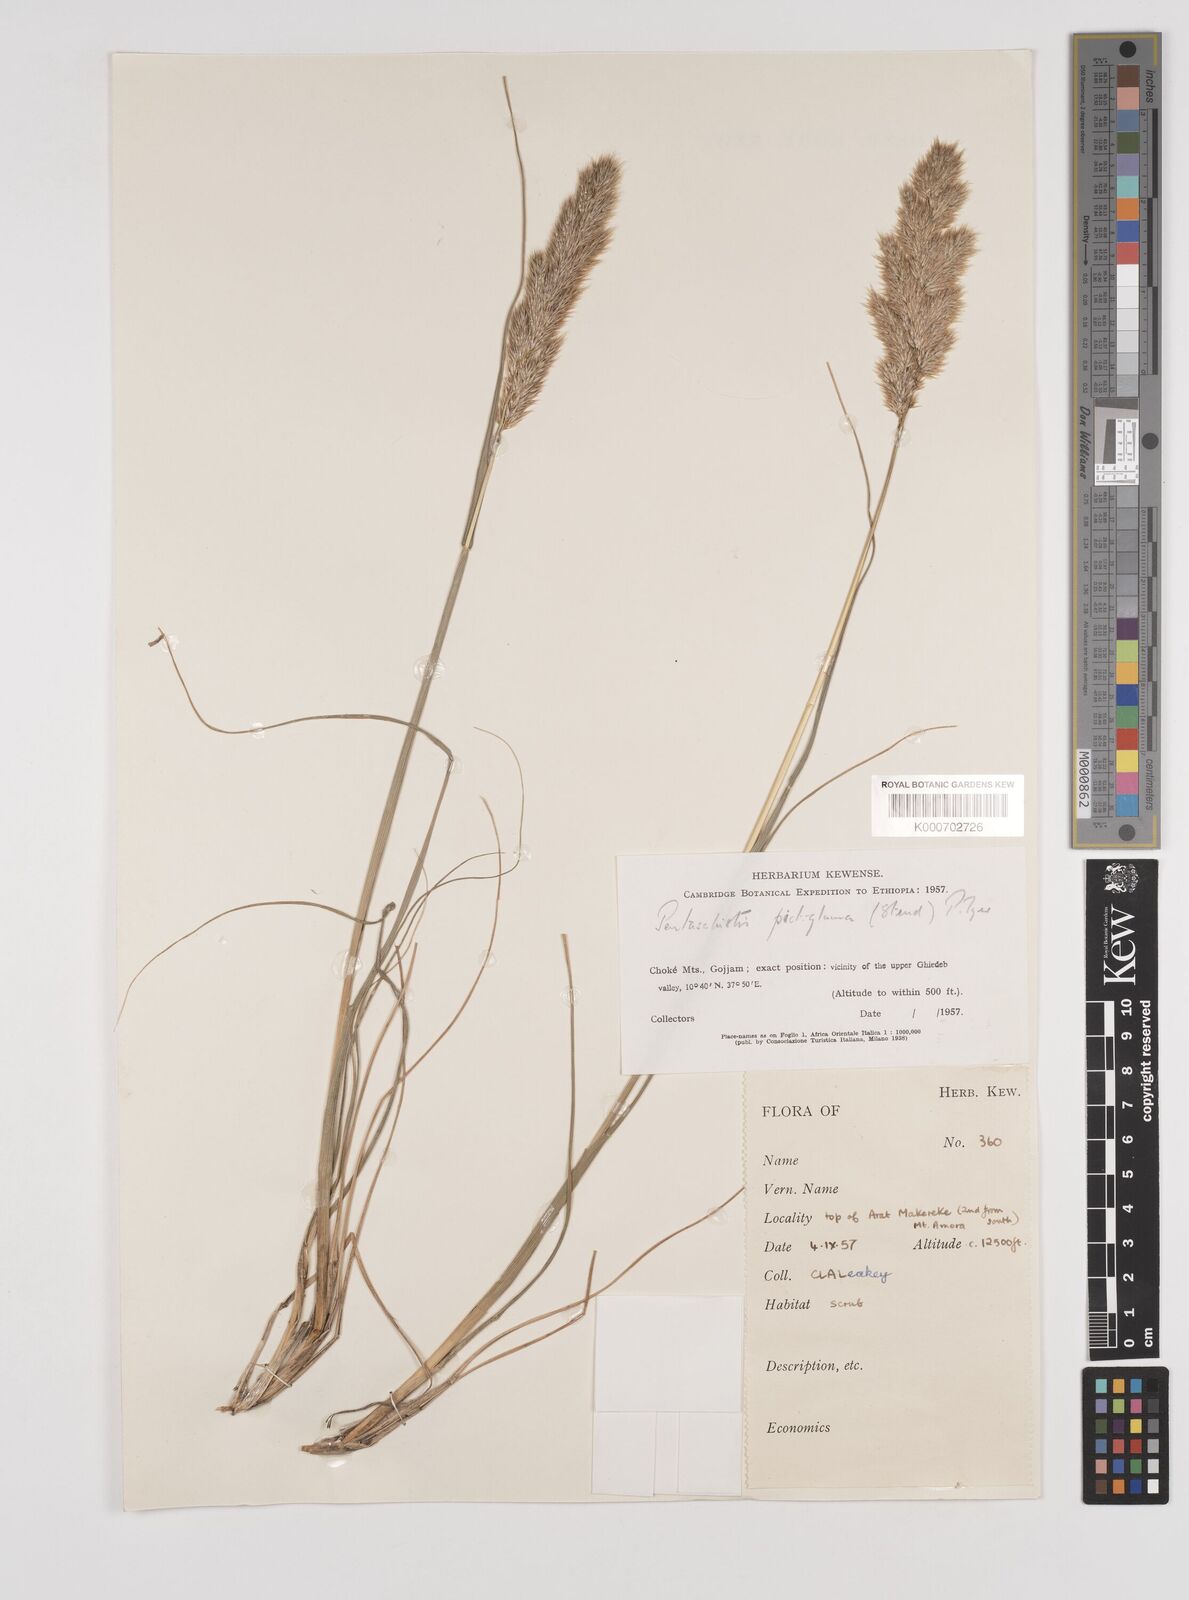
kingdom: Plantae
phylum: Tracheophyta
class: Liliopsida
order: Poales
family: Poaceae
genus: Pentameris
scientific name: Pentameris pictigluma
